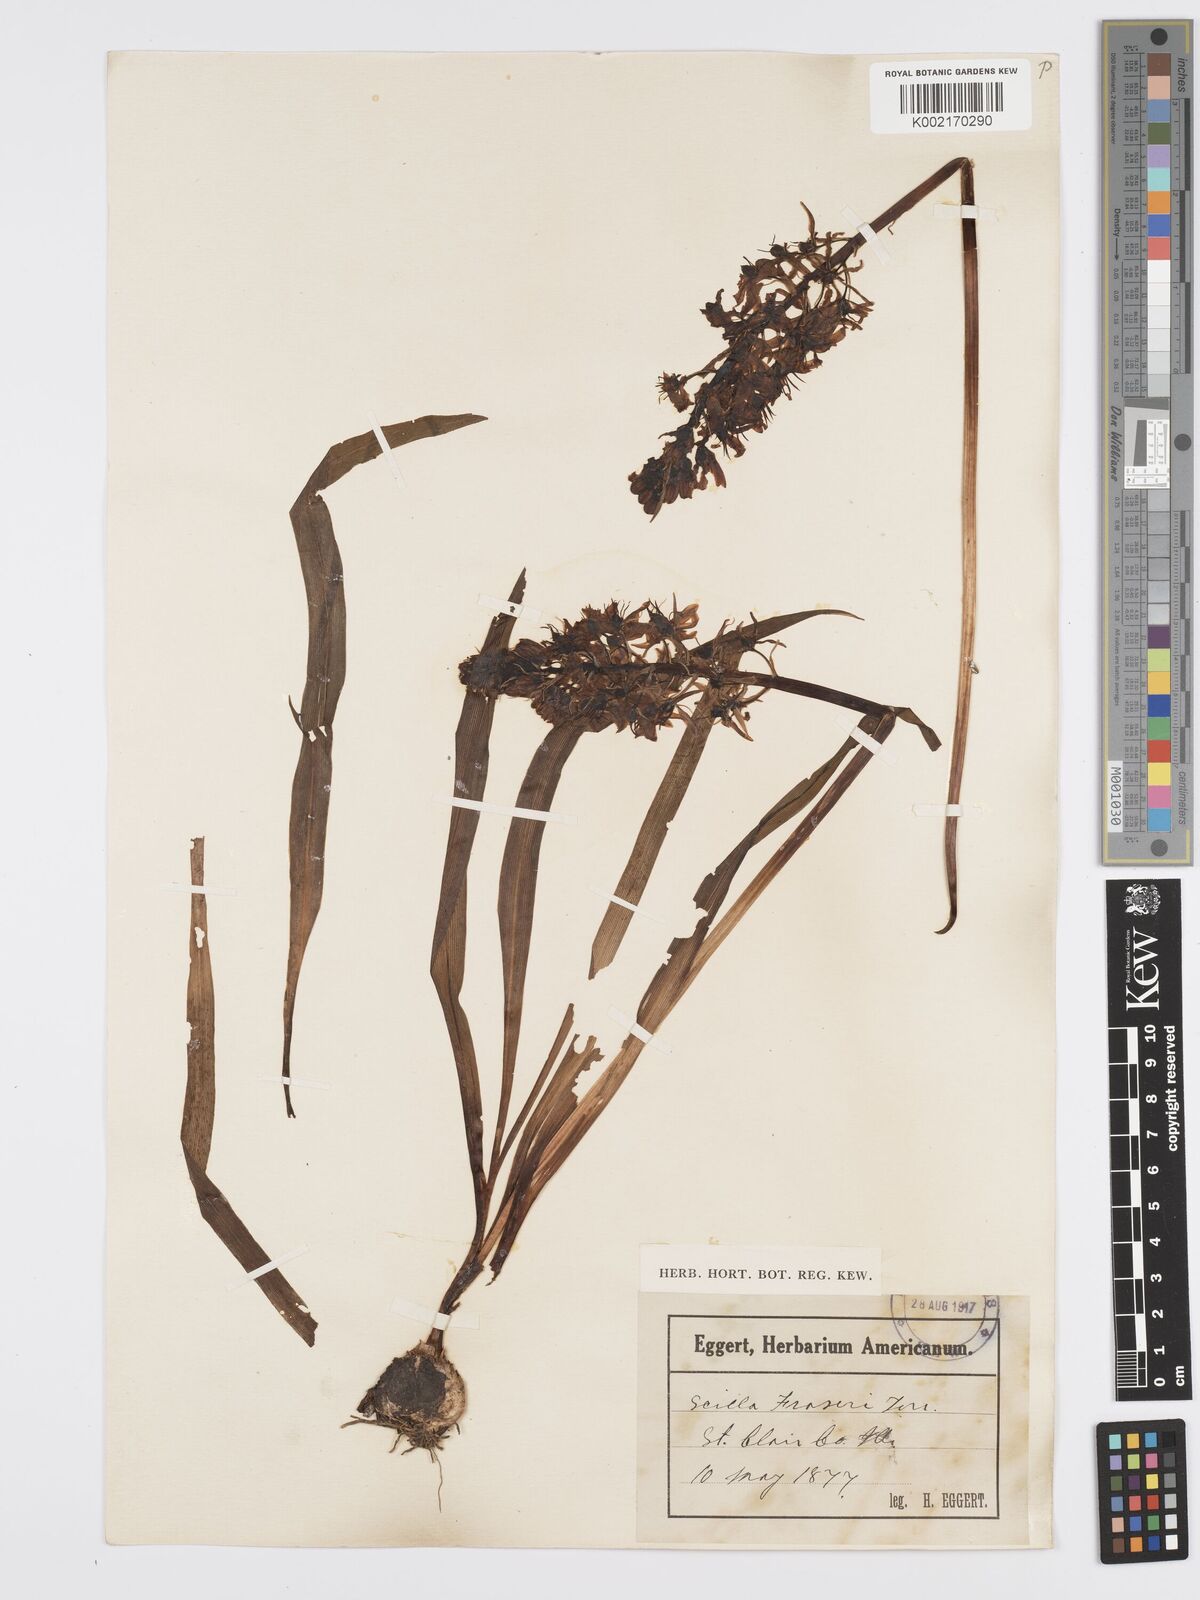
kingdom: Plantae
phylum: Tracheophyta
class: Liliopsida
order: Asparagales
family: Asparagaceae
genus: Camassia
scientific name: Camassia scilloides
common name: Wild hyacinth
